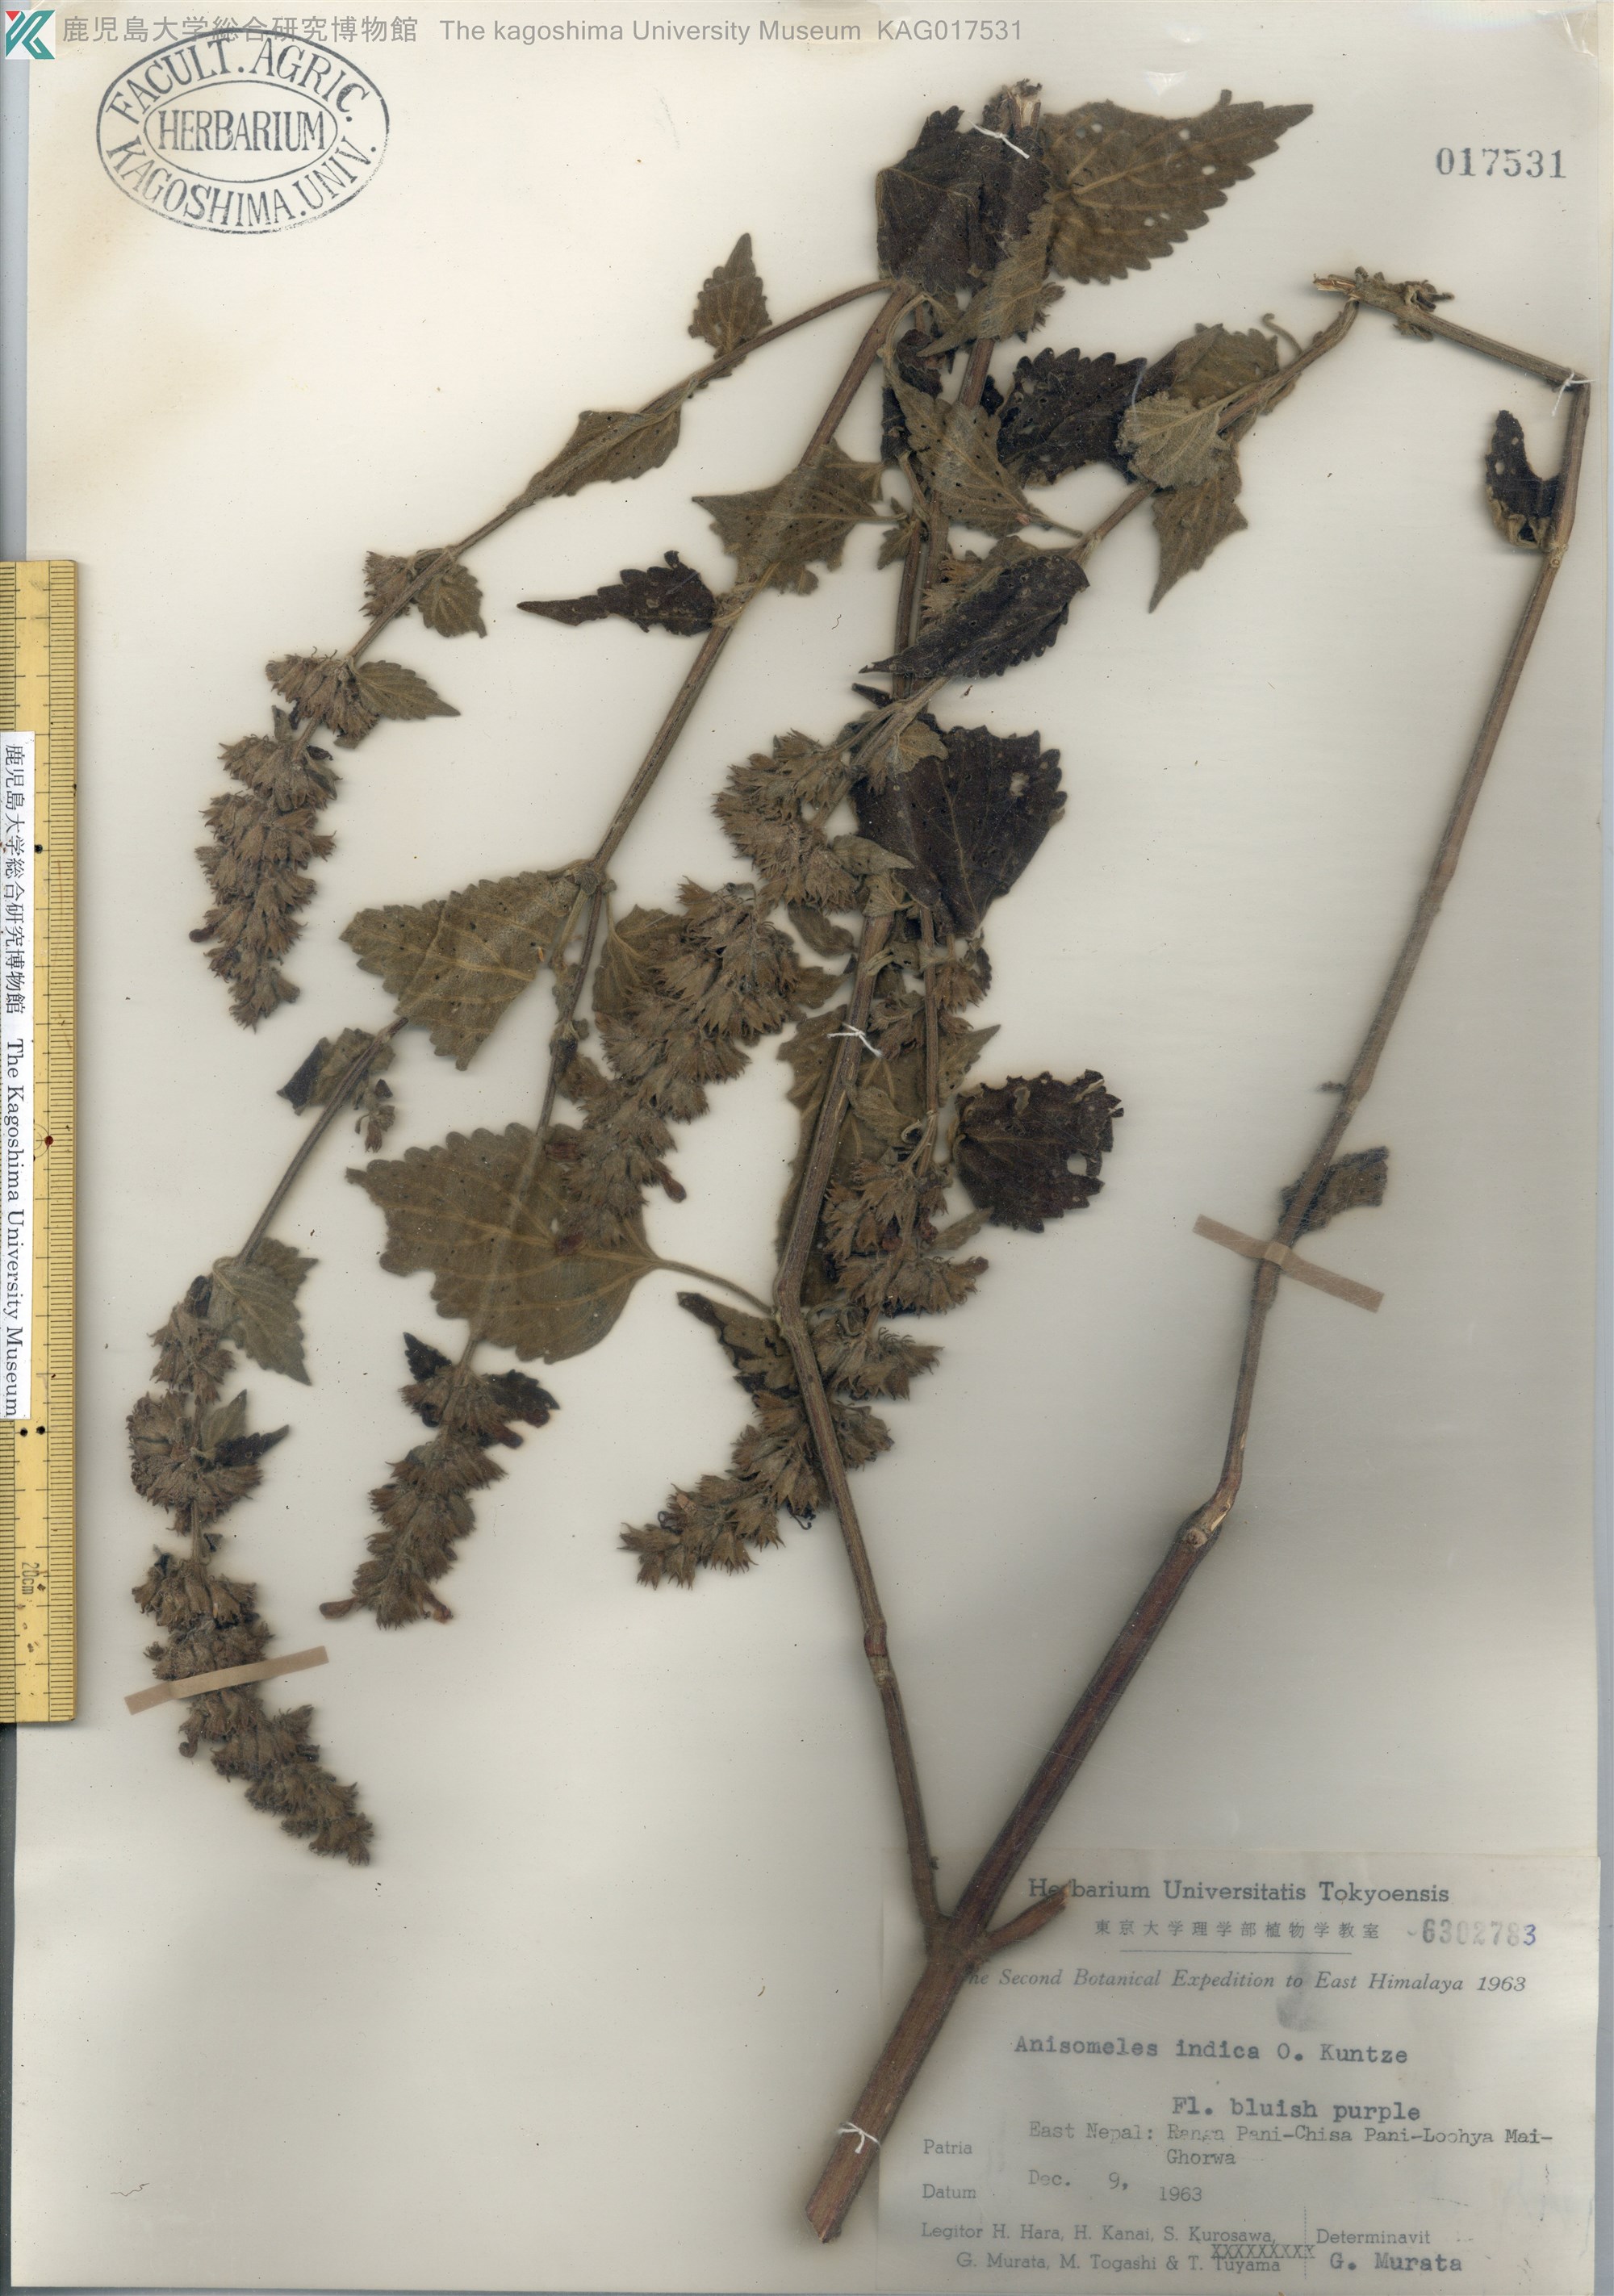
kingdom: Plantae
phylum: Tracheophyta
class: Magnoliopsida
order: Lamiales
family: Lamiaceae
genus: Anisomeles
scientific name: Anisomeles indica
